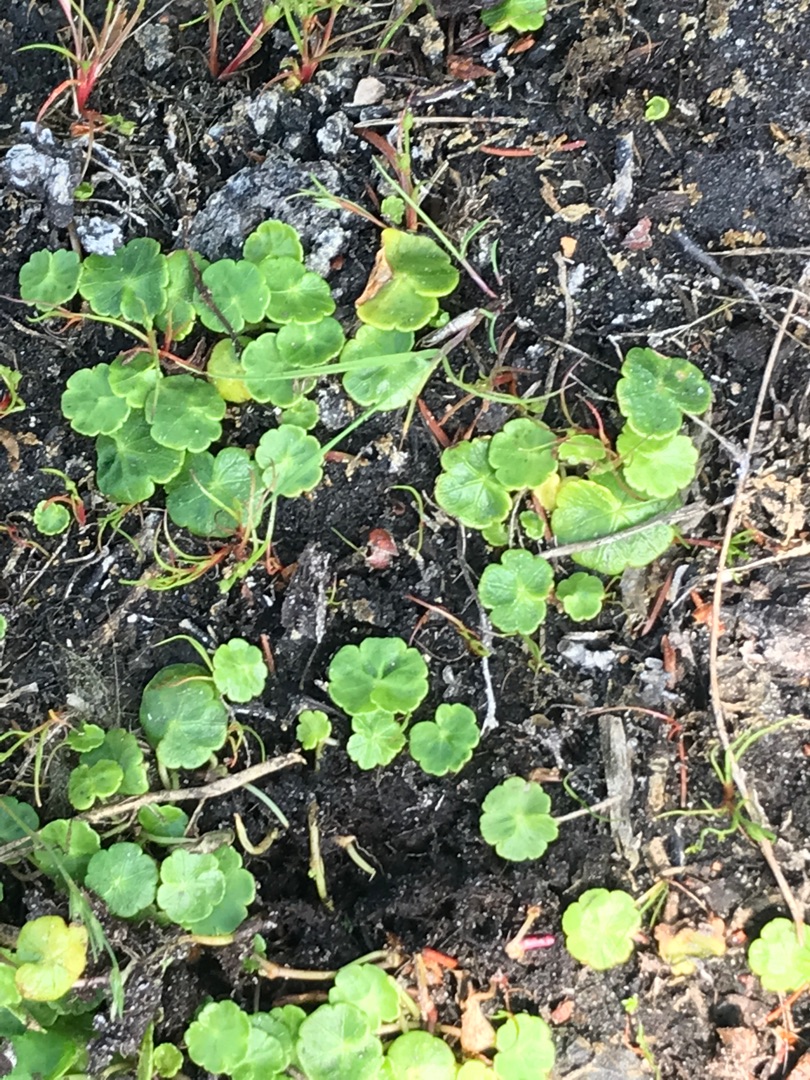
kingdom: Plantae
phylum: Tracheophyta
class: Magnoliopsida
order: Apiales
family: Araliaceae
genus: Hydrocotyle
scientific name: Hydrocotyle vulgaris
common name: Vandnavle
